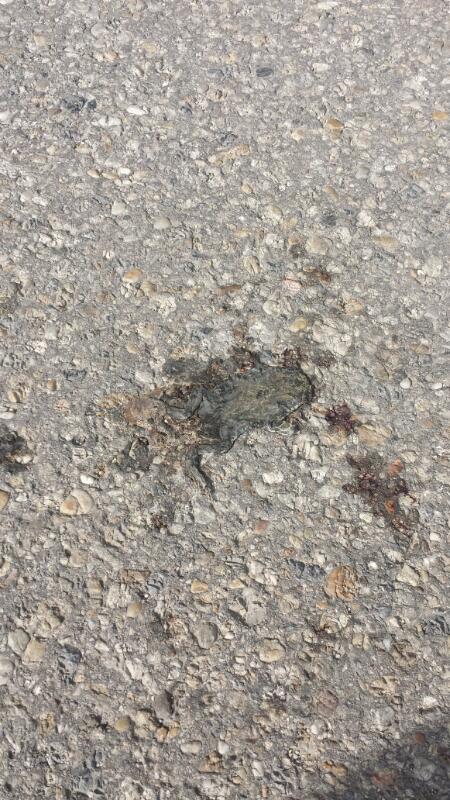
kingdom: Animalia
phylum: Chordata
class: Amphibia
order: Anura
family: Bufonidae
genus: Bufotes
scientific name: Bufotes viridis
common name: European green toad
